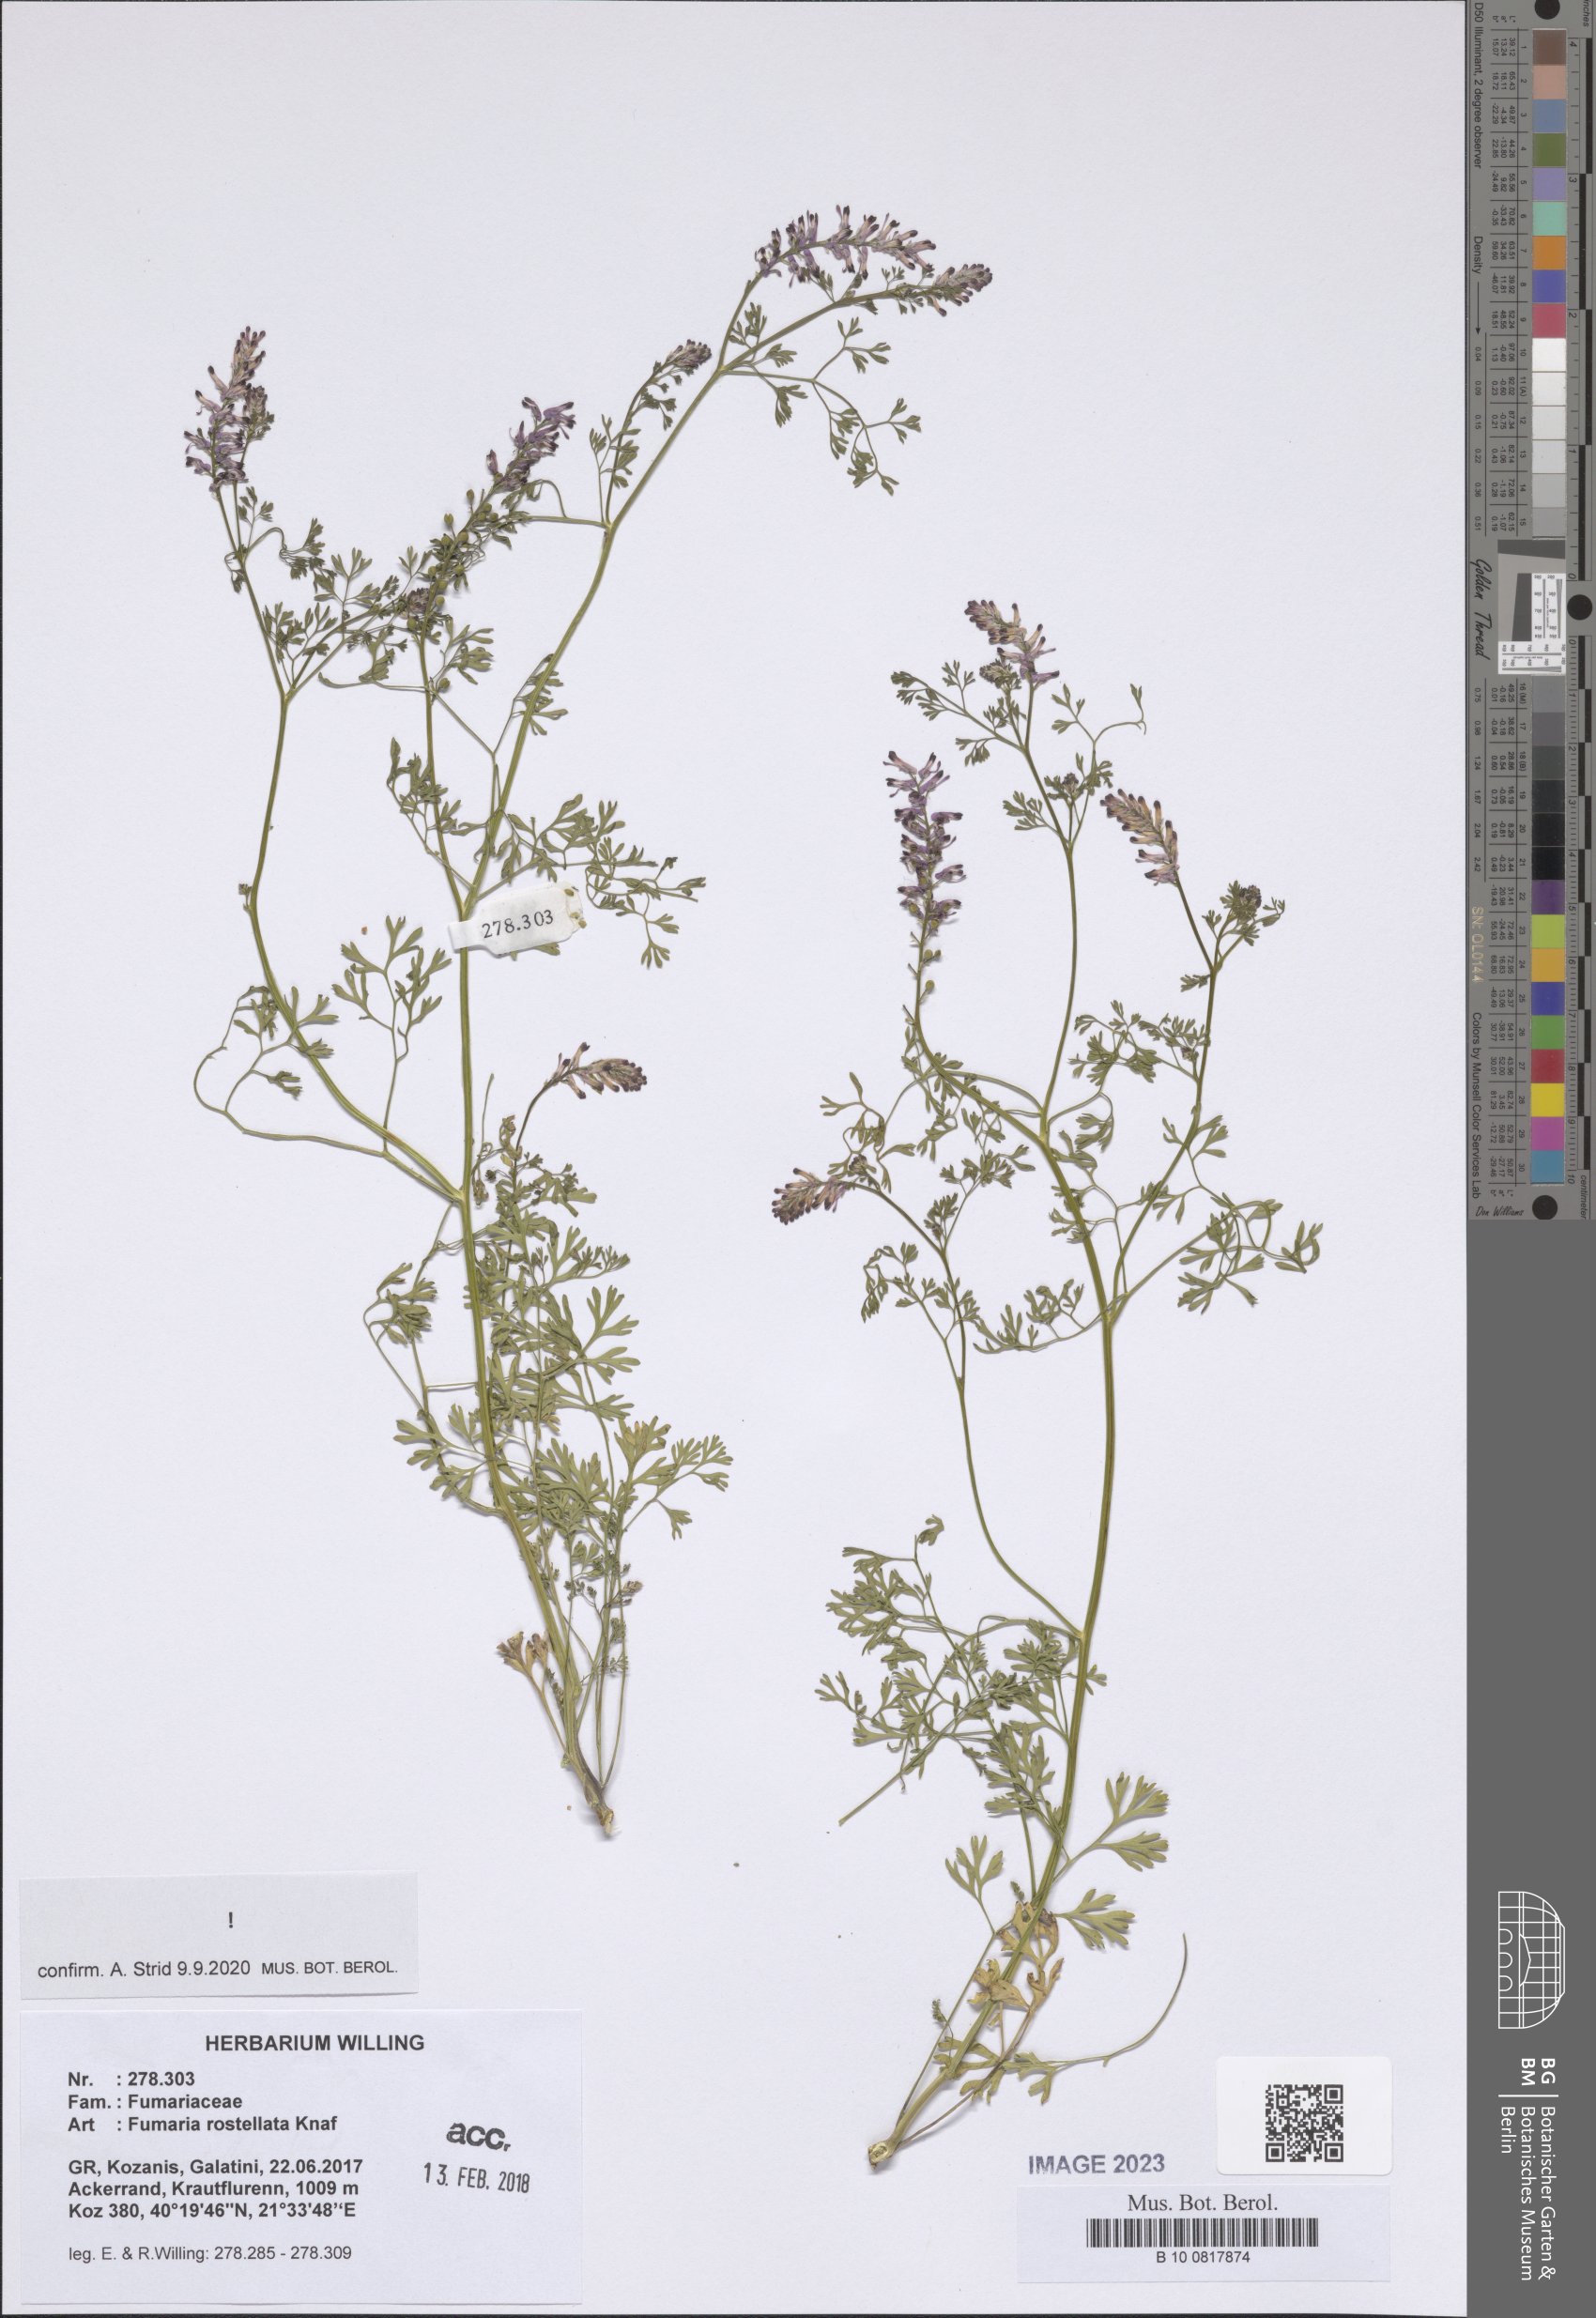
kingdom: Plantae
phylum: Tracheophyta
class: Magnoliopsida
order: Ranunculales
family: Papaveraceae
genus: Fumaria
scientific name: Fumaria rostellata
